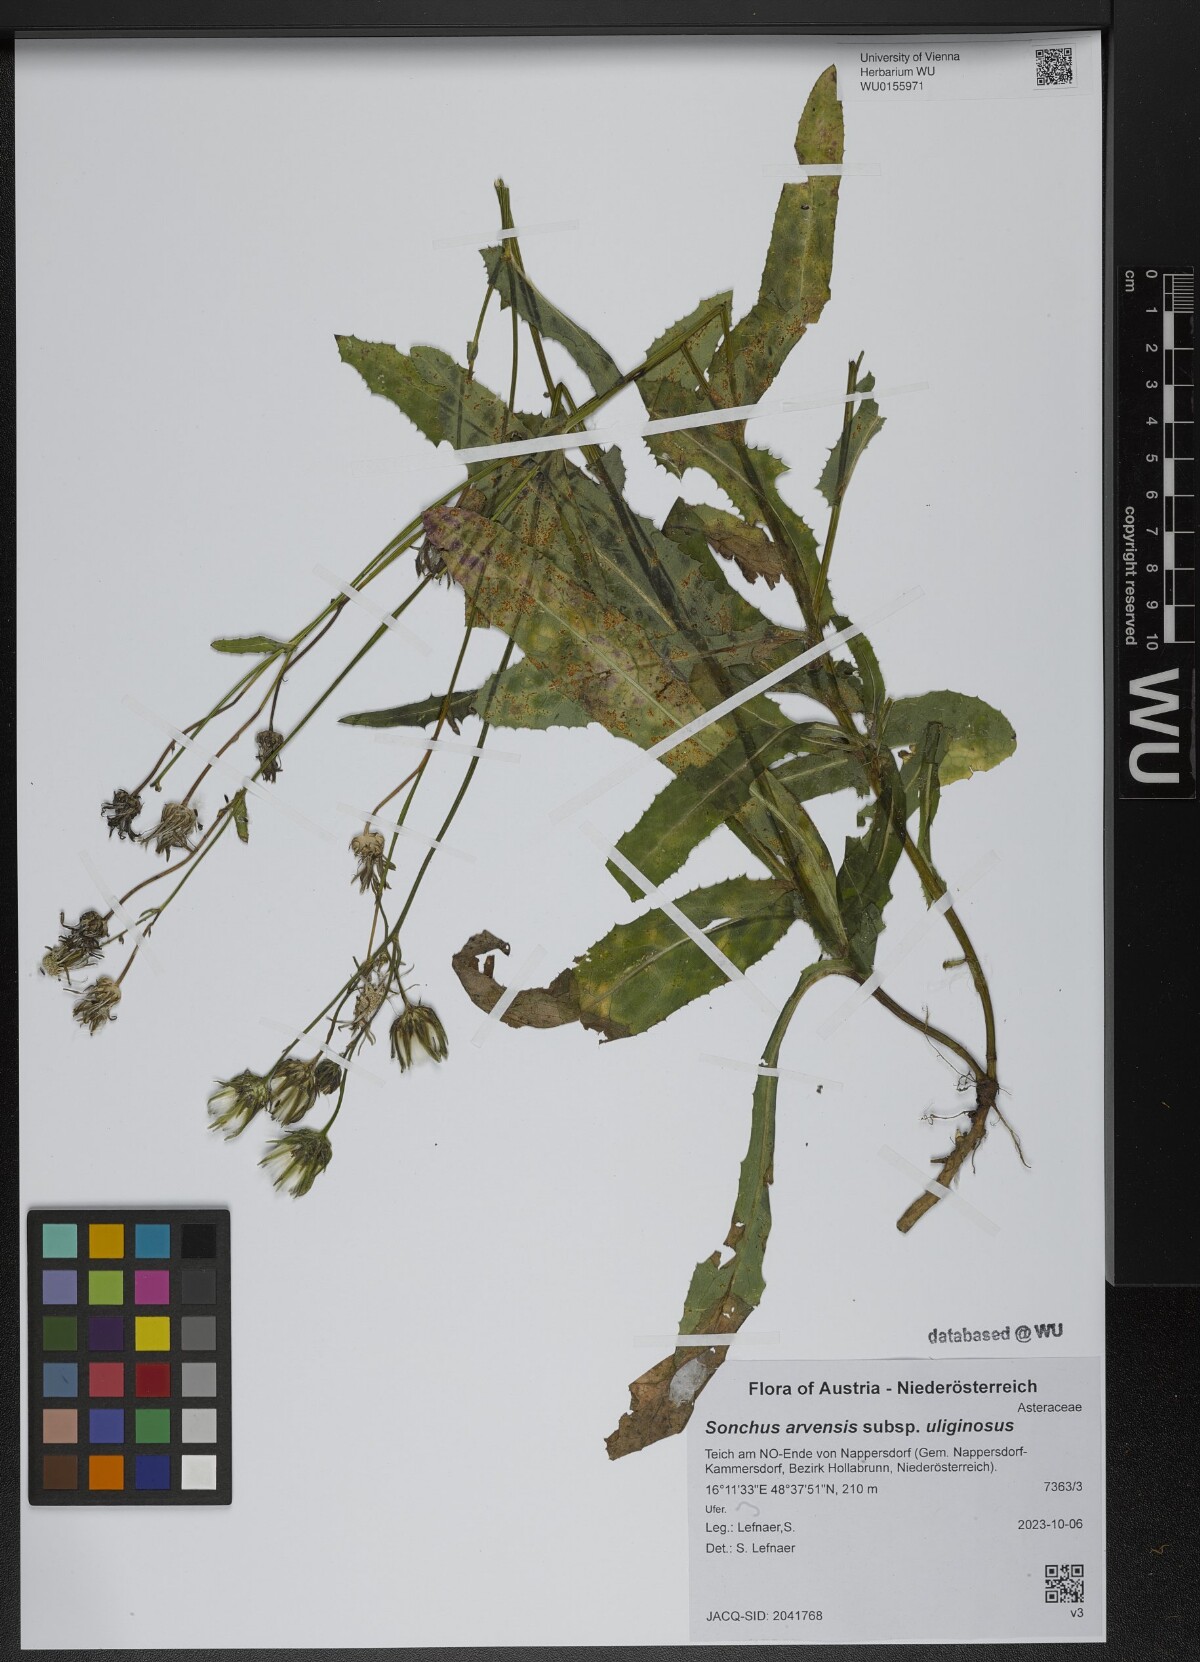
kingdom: Plantae
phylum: Tracheophyta
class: Magnoliopsida
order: Asterales
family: Asteraceae
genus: Sonchus
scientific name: Sonchus arvensis
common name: Perennial sow-thistle
